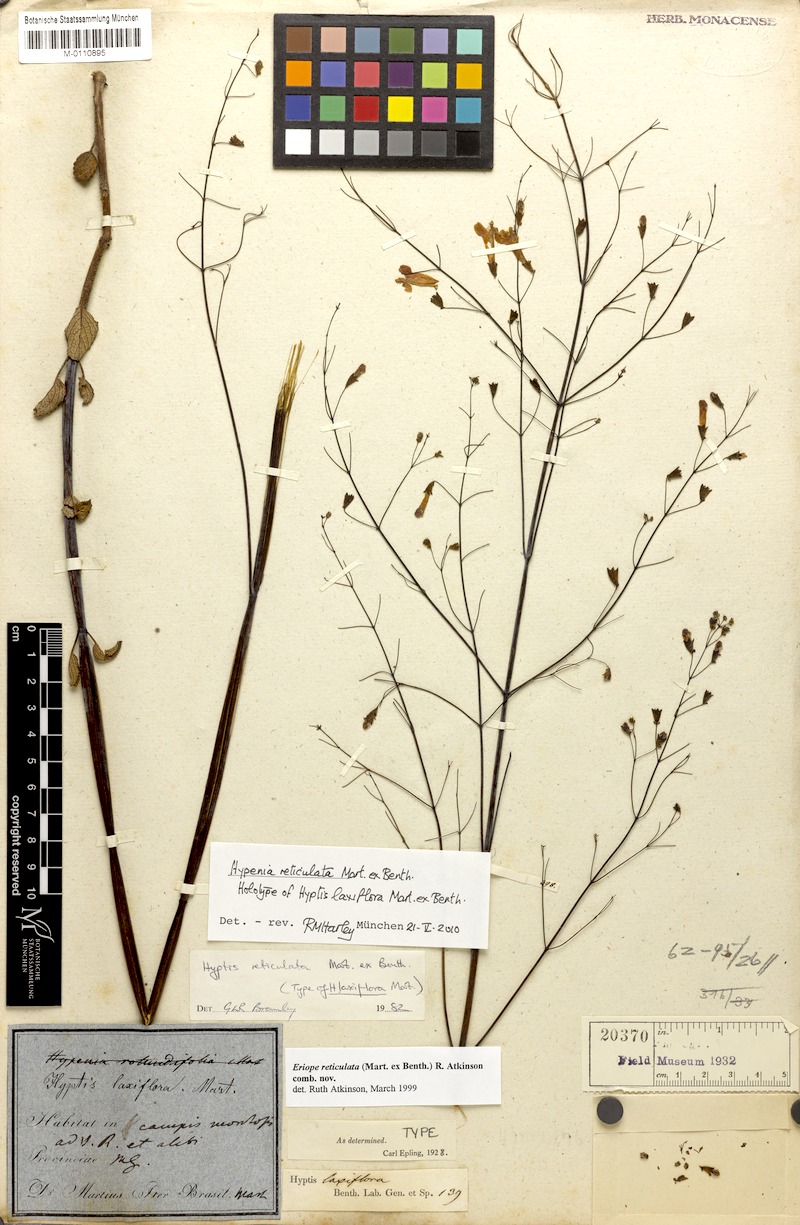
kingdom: Plantae
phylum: Tracheophyta
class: Magnoliopsida
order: Lamiales
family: Lamiaceae
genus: Hypenia
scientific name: Hypenia reticulata
